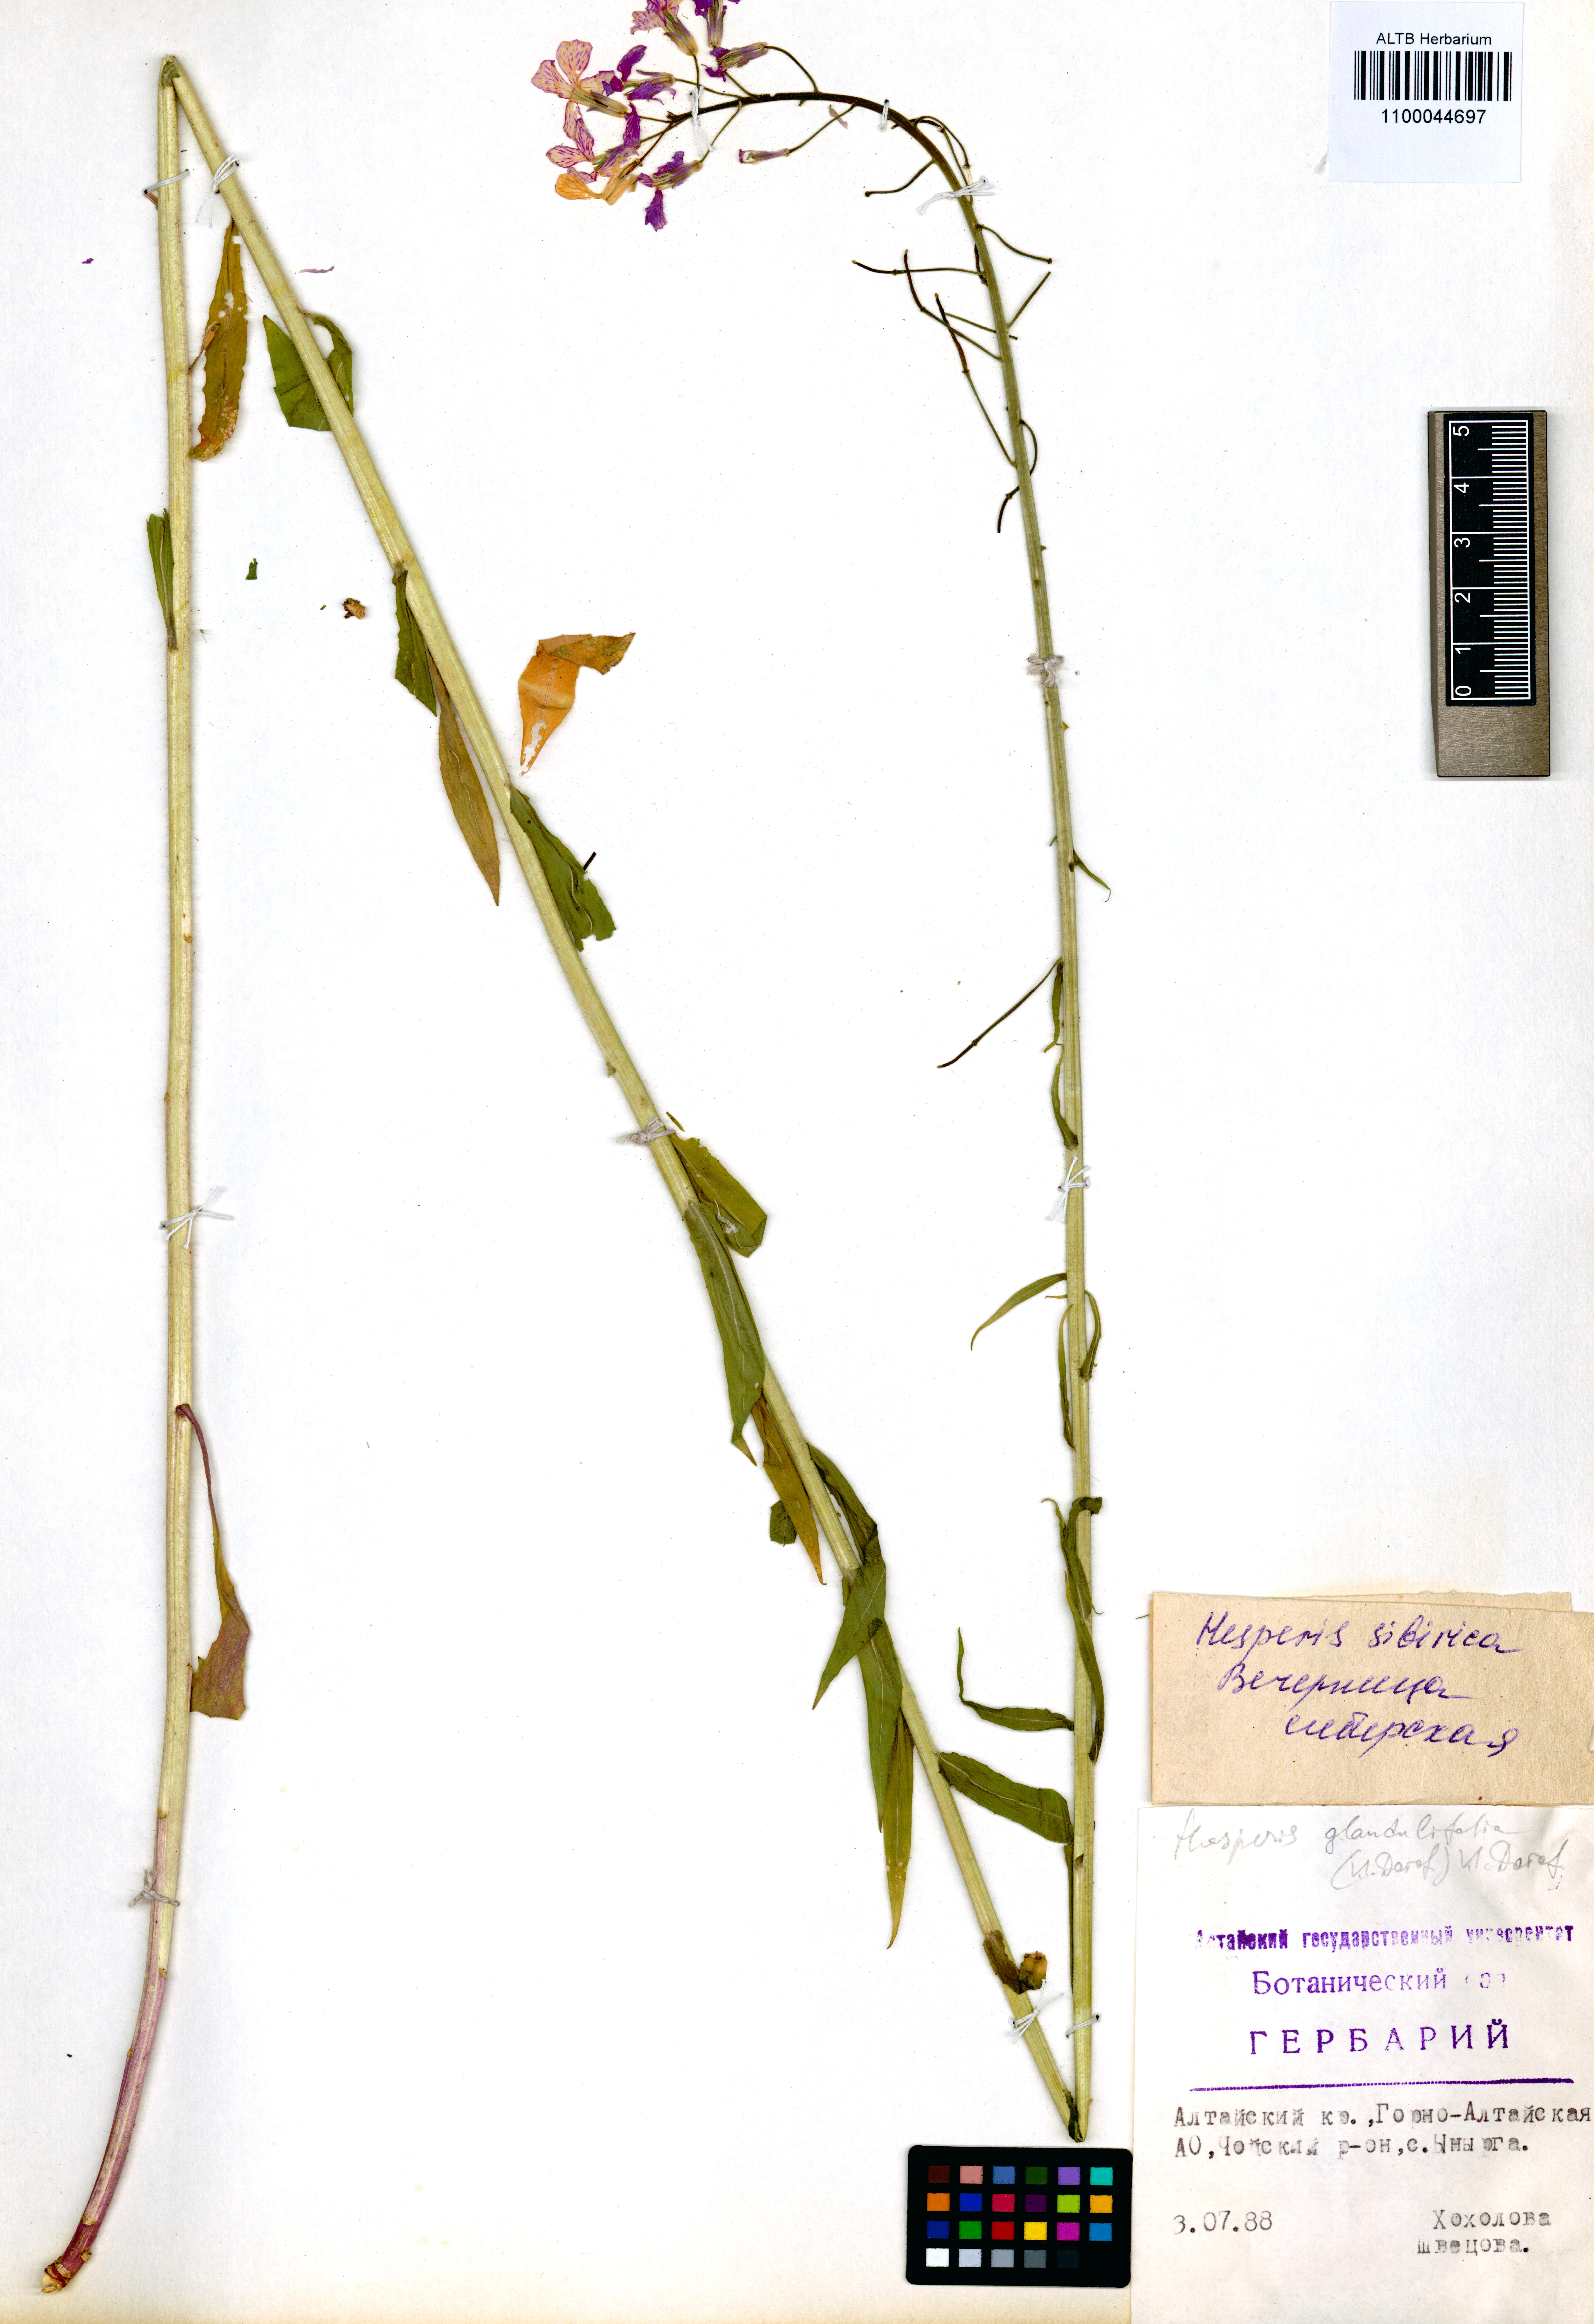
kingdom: Plantae
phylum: Tracheophyta
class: Magnoliopsida
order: Brassicales
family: Brassicaceae
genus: Hesperis
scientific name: Hesperis sibirica
